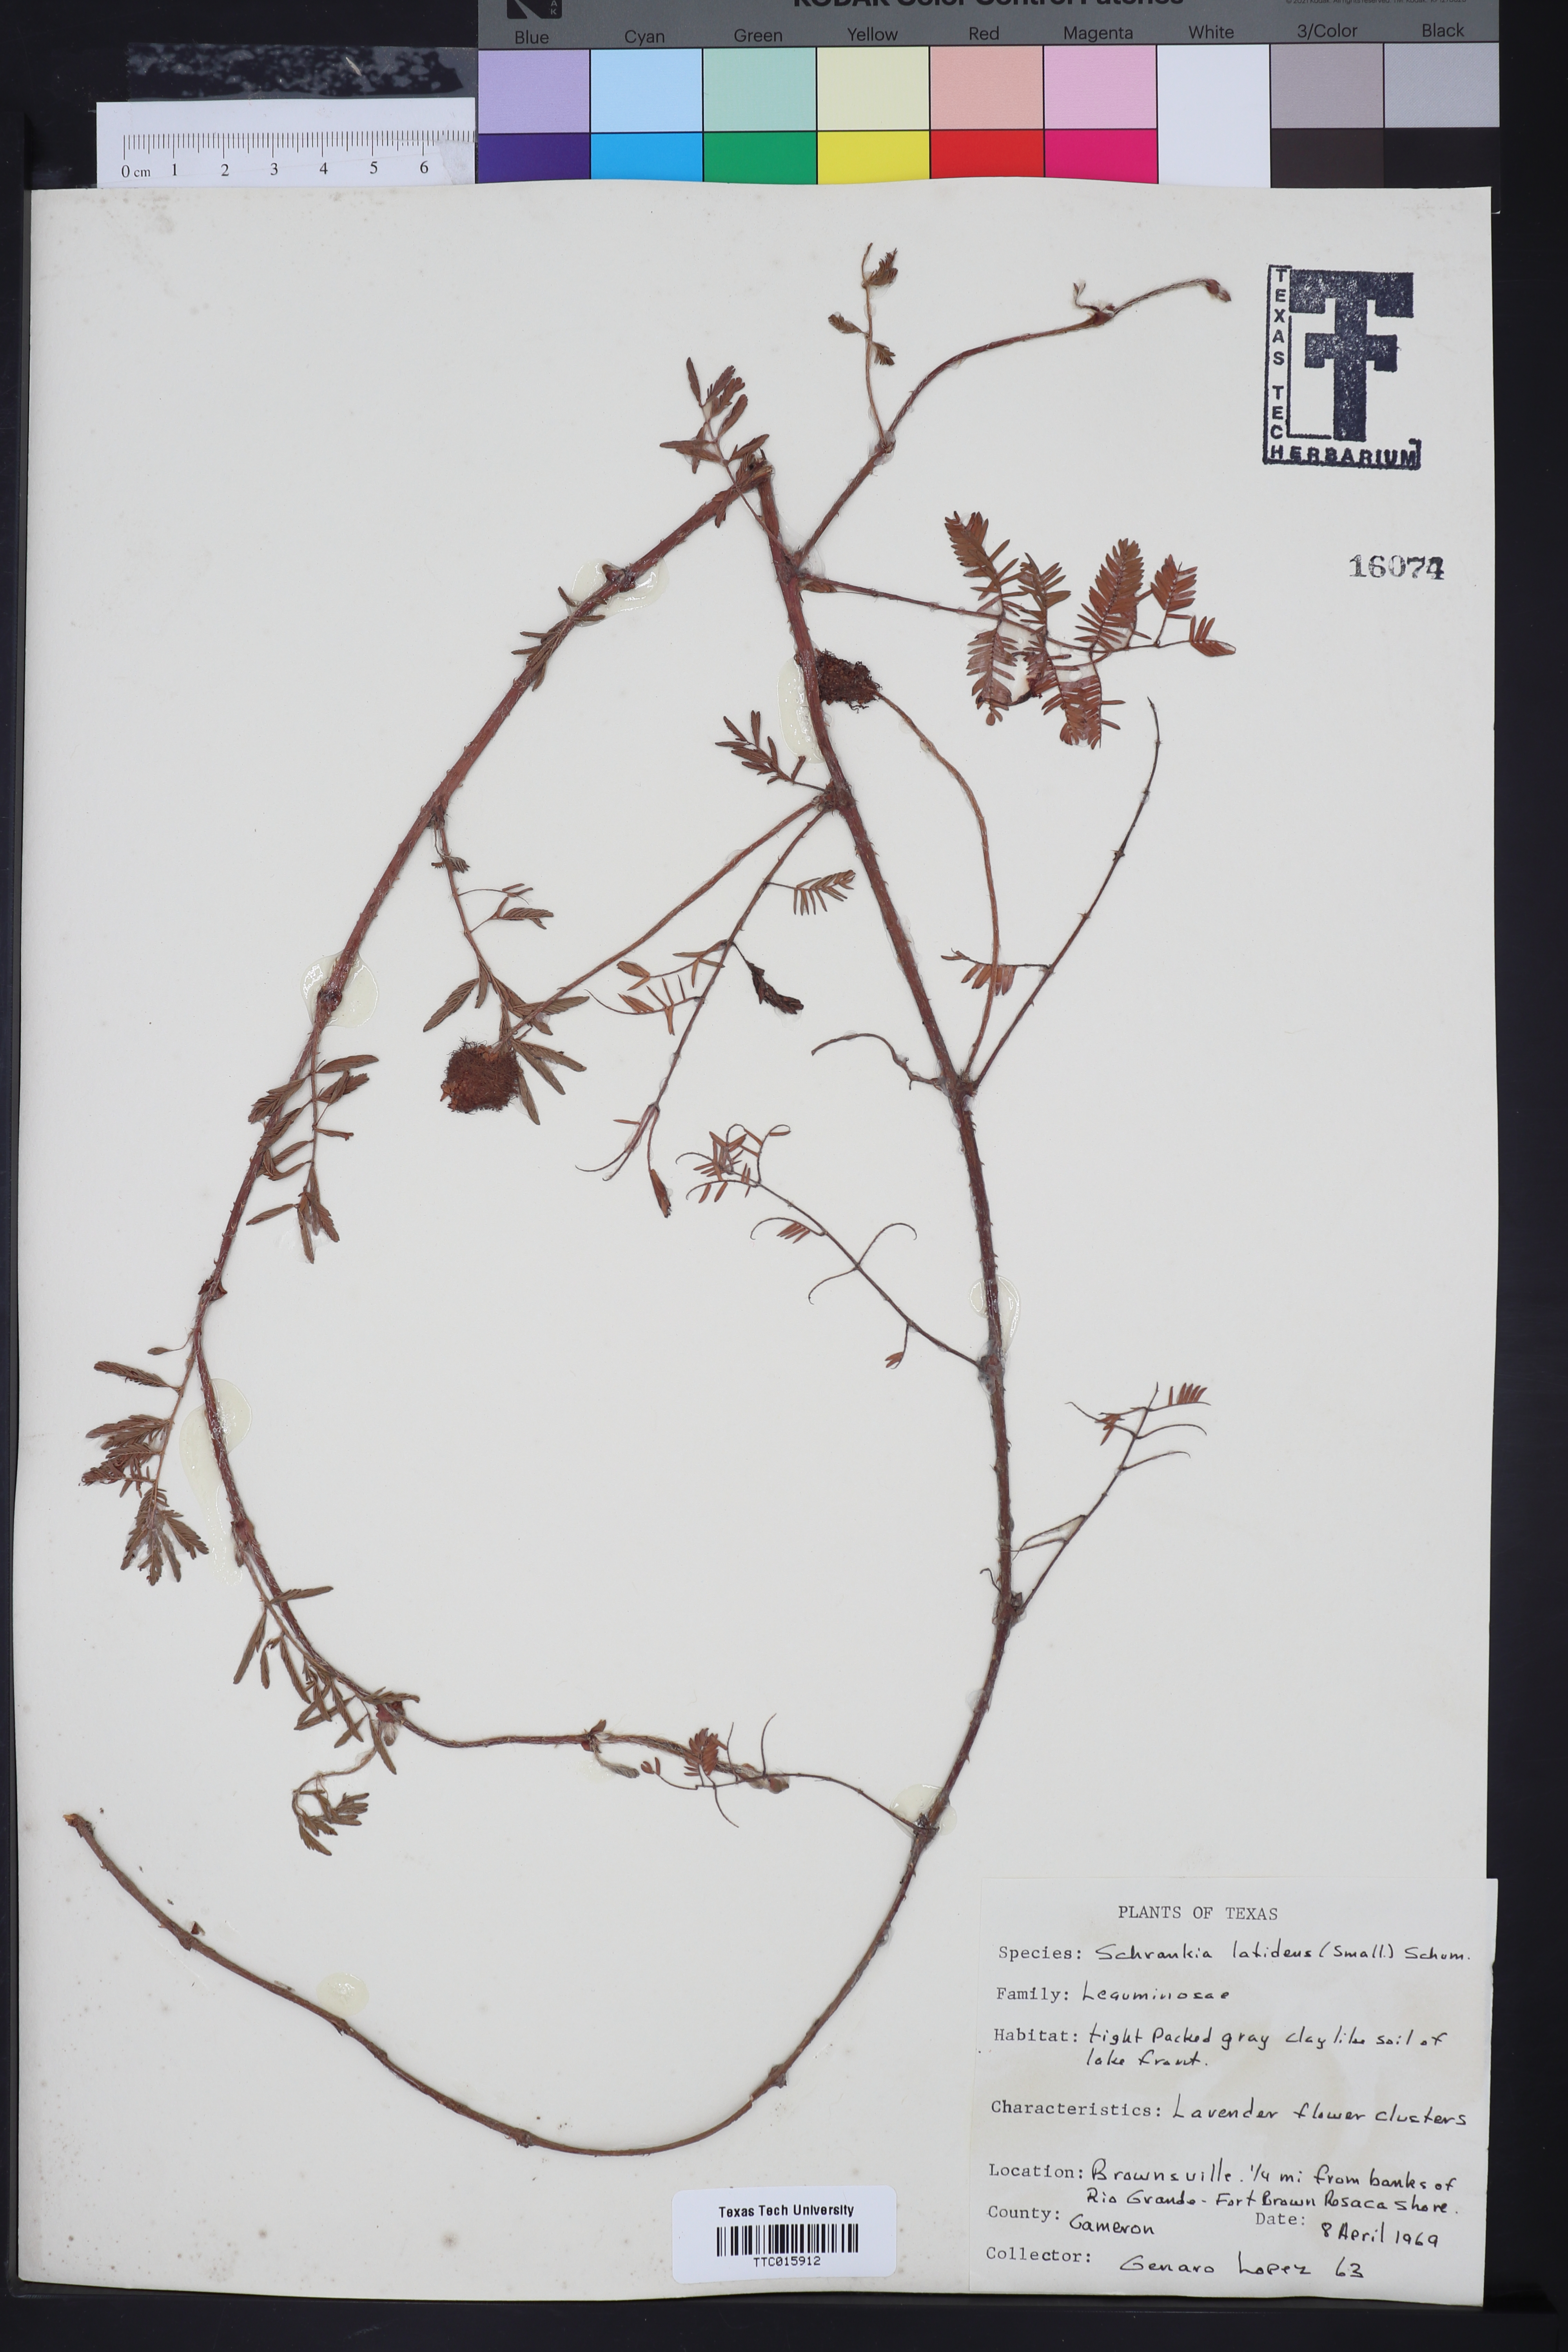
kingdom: Plantae
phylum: Tracheophyta
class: Magnoliopsida
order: Fabales
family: Fabaceae
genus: Mimosa
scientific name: Mimosa quadrivalvis
